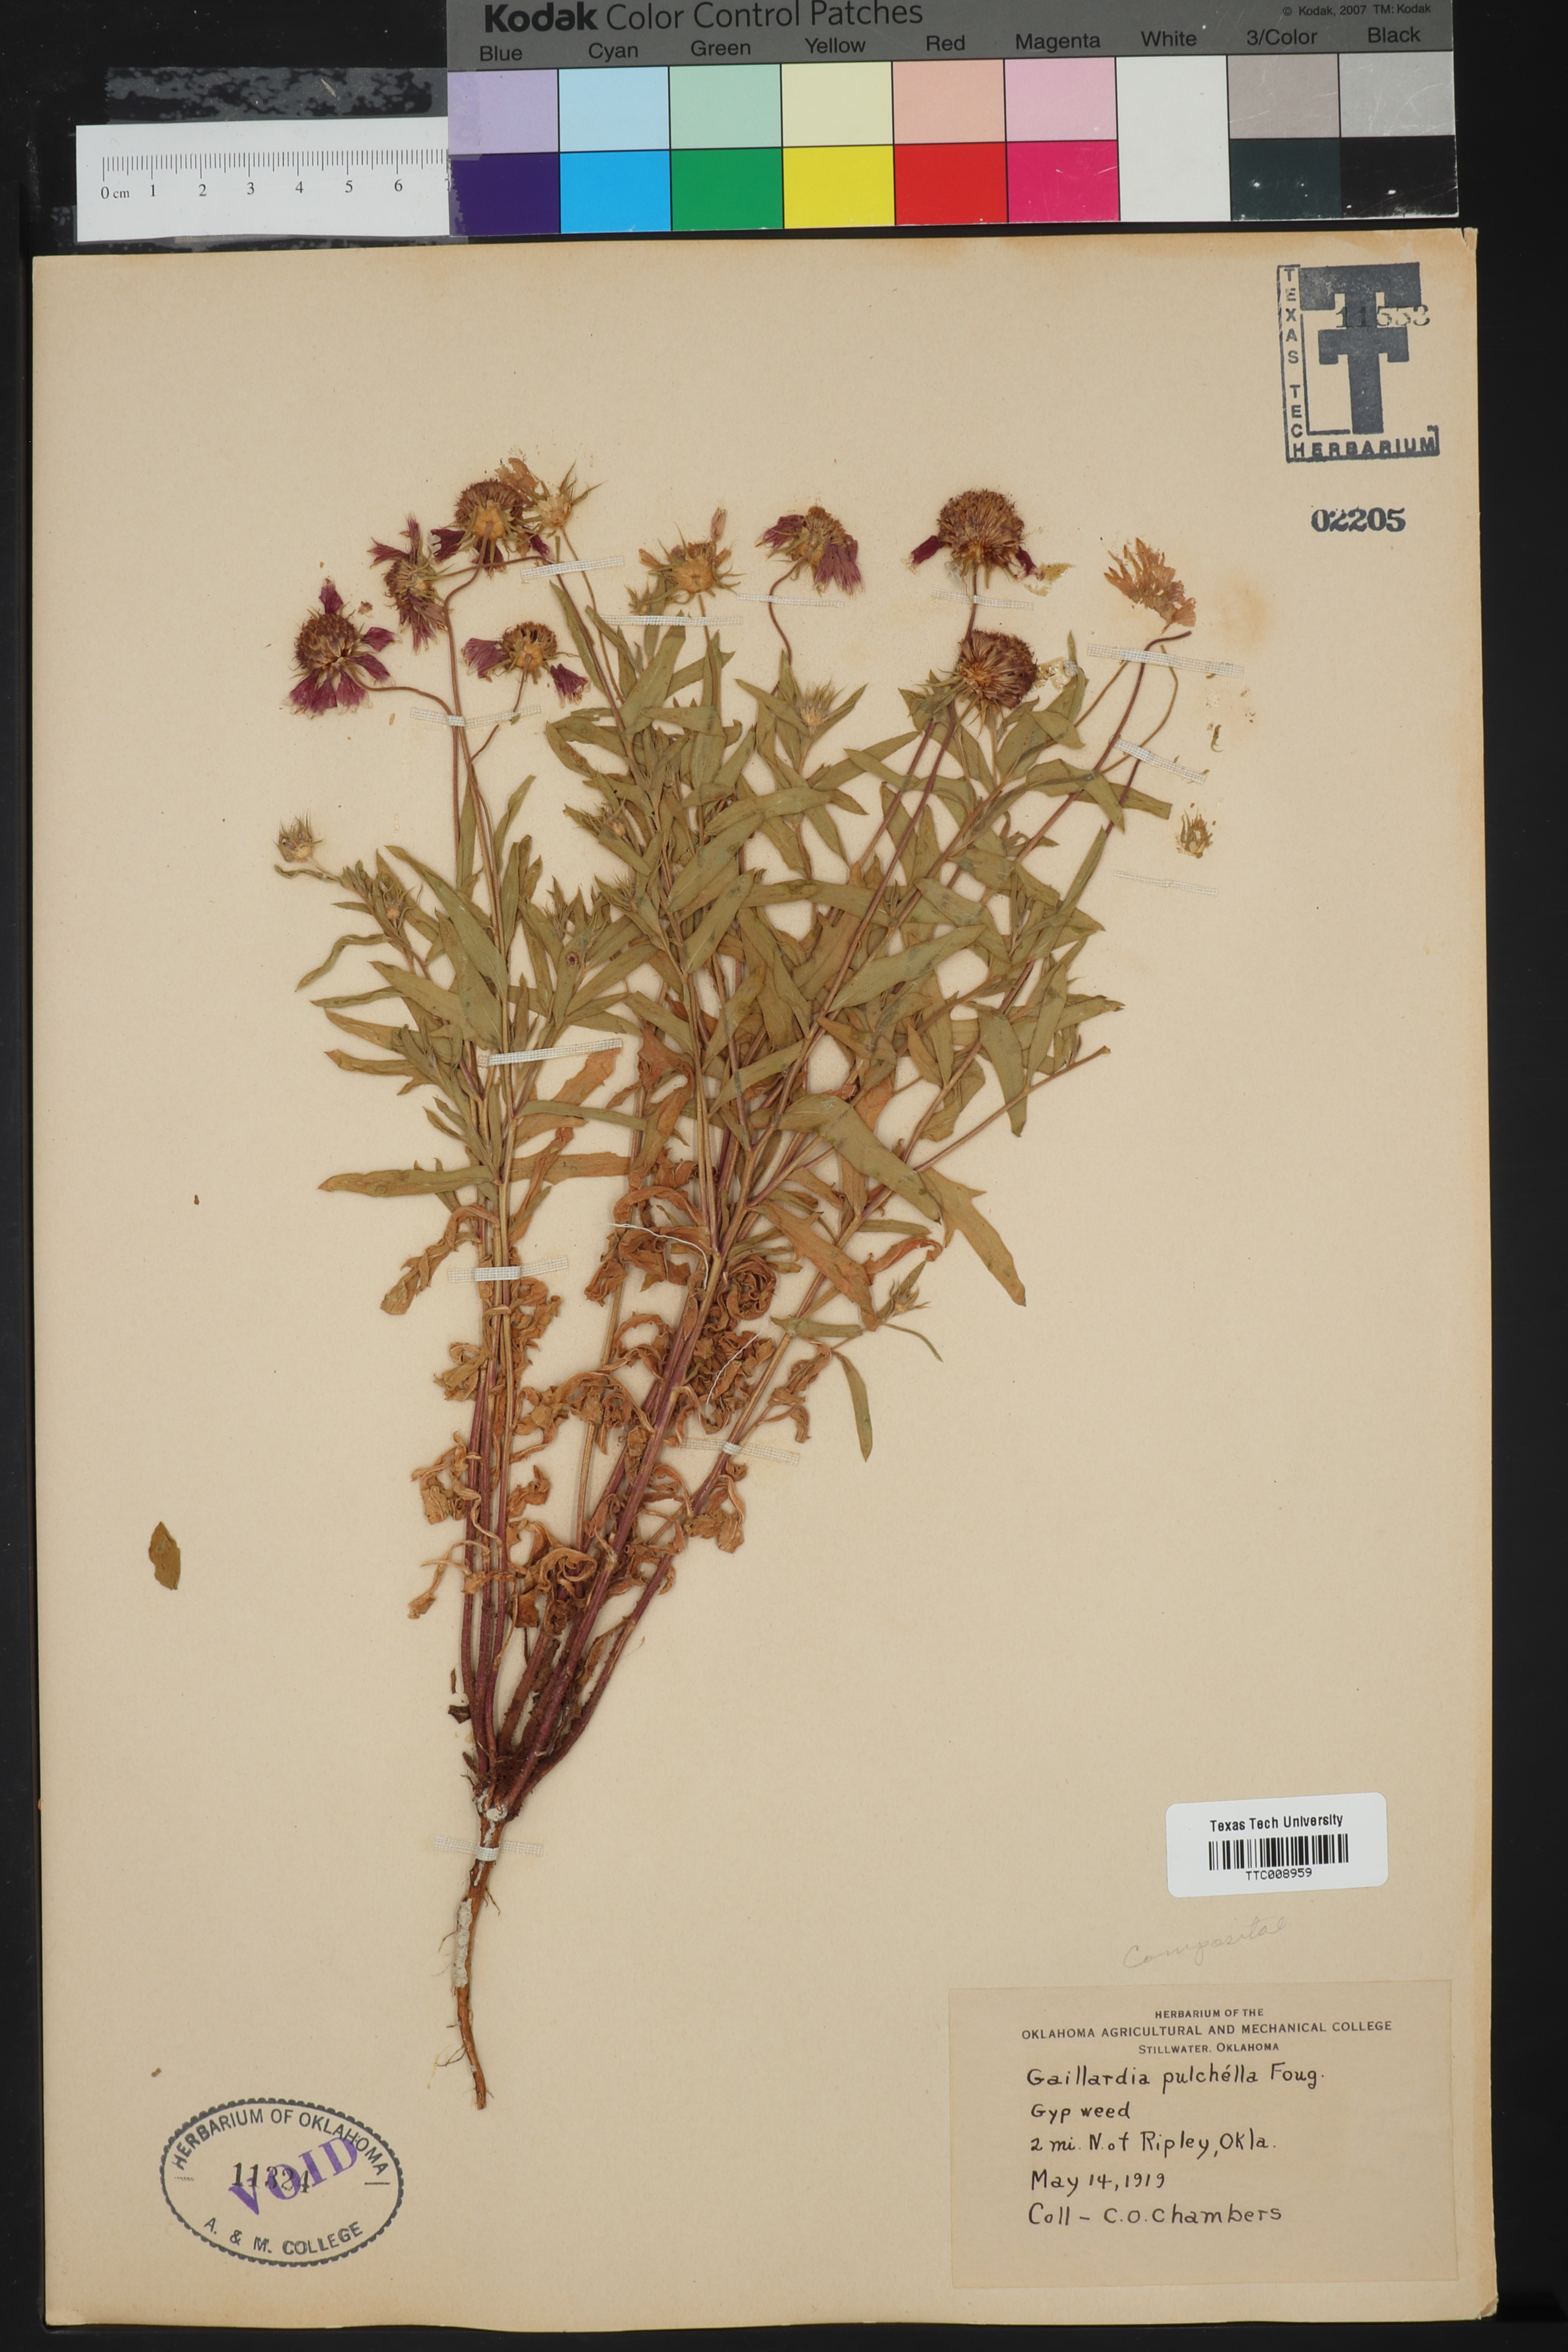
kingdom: Plantae
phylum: Tracheophyta
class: Magnoliopsida
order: Asterales
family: Asteraceae
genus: Gaillardia
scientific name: Gaillardia pulchella
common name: Firewheel
